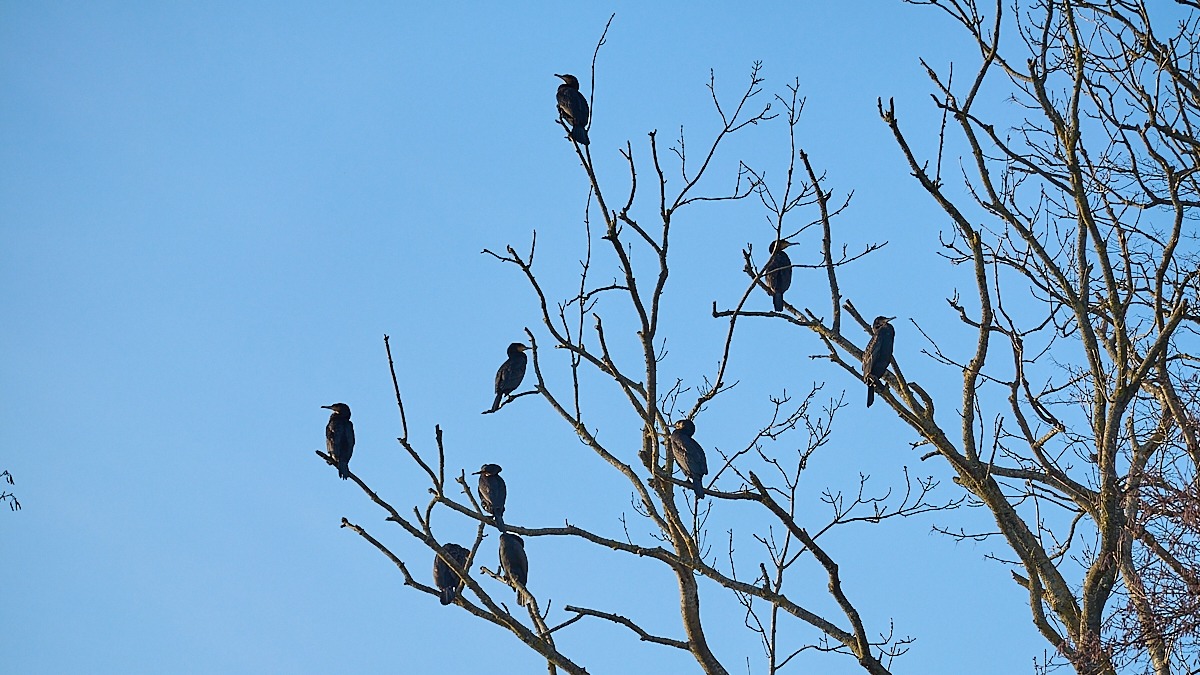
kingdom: Animalia
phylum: Chordata
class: Aves
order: Suliformes
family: Phalacrocoracidae
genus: Phalacrocorax
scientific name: Phalacrocorax carbo
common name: Skarv
